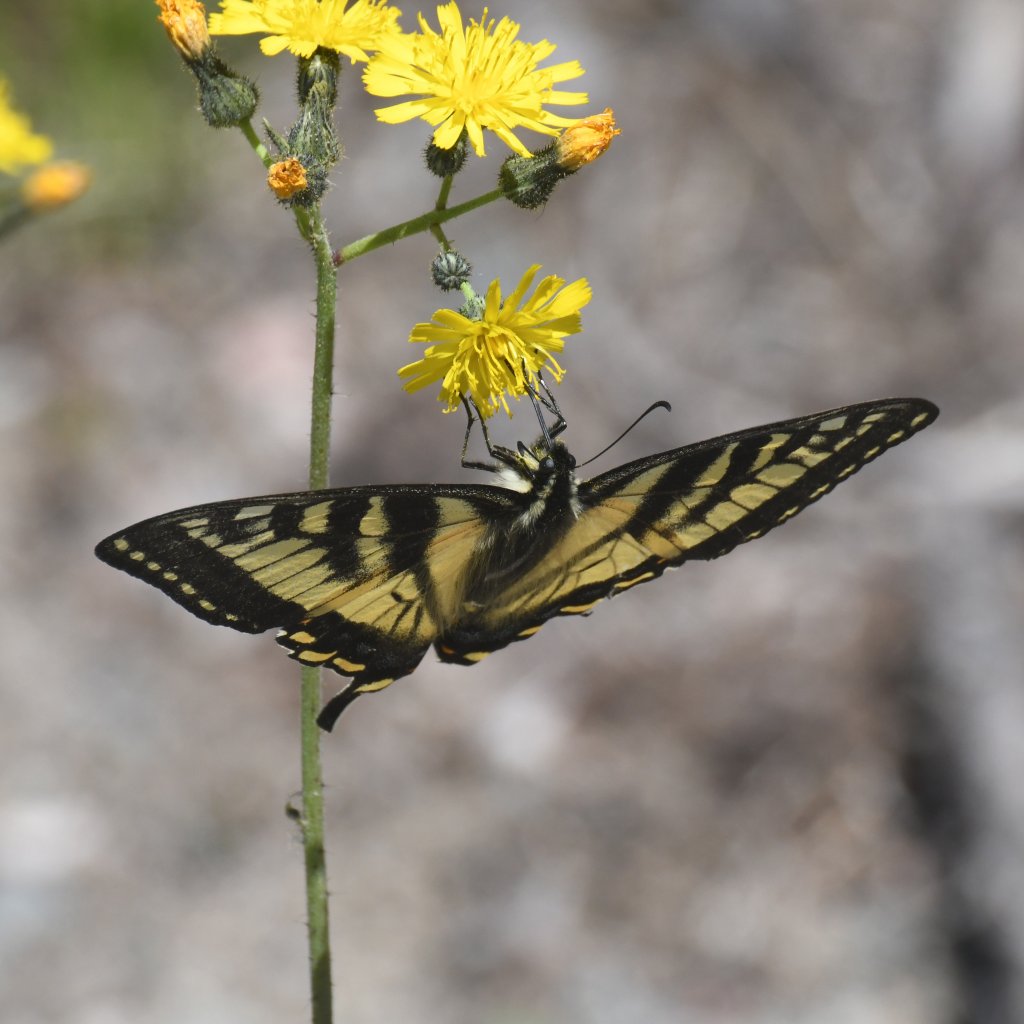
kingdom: Animalia
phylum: Arthropoda
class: Insecta
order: Lepidoptera
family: Papilionidae
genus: Pterourus
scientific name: Pterourus canadensis
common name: Canadian Tiger Swallowtail
